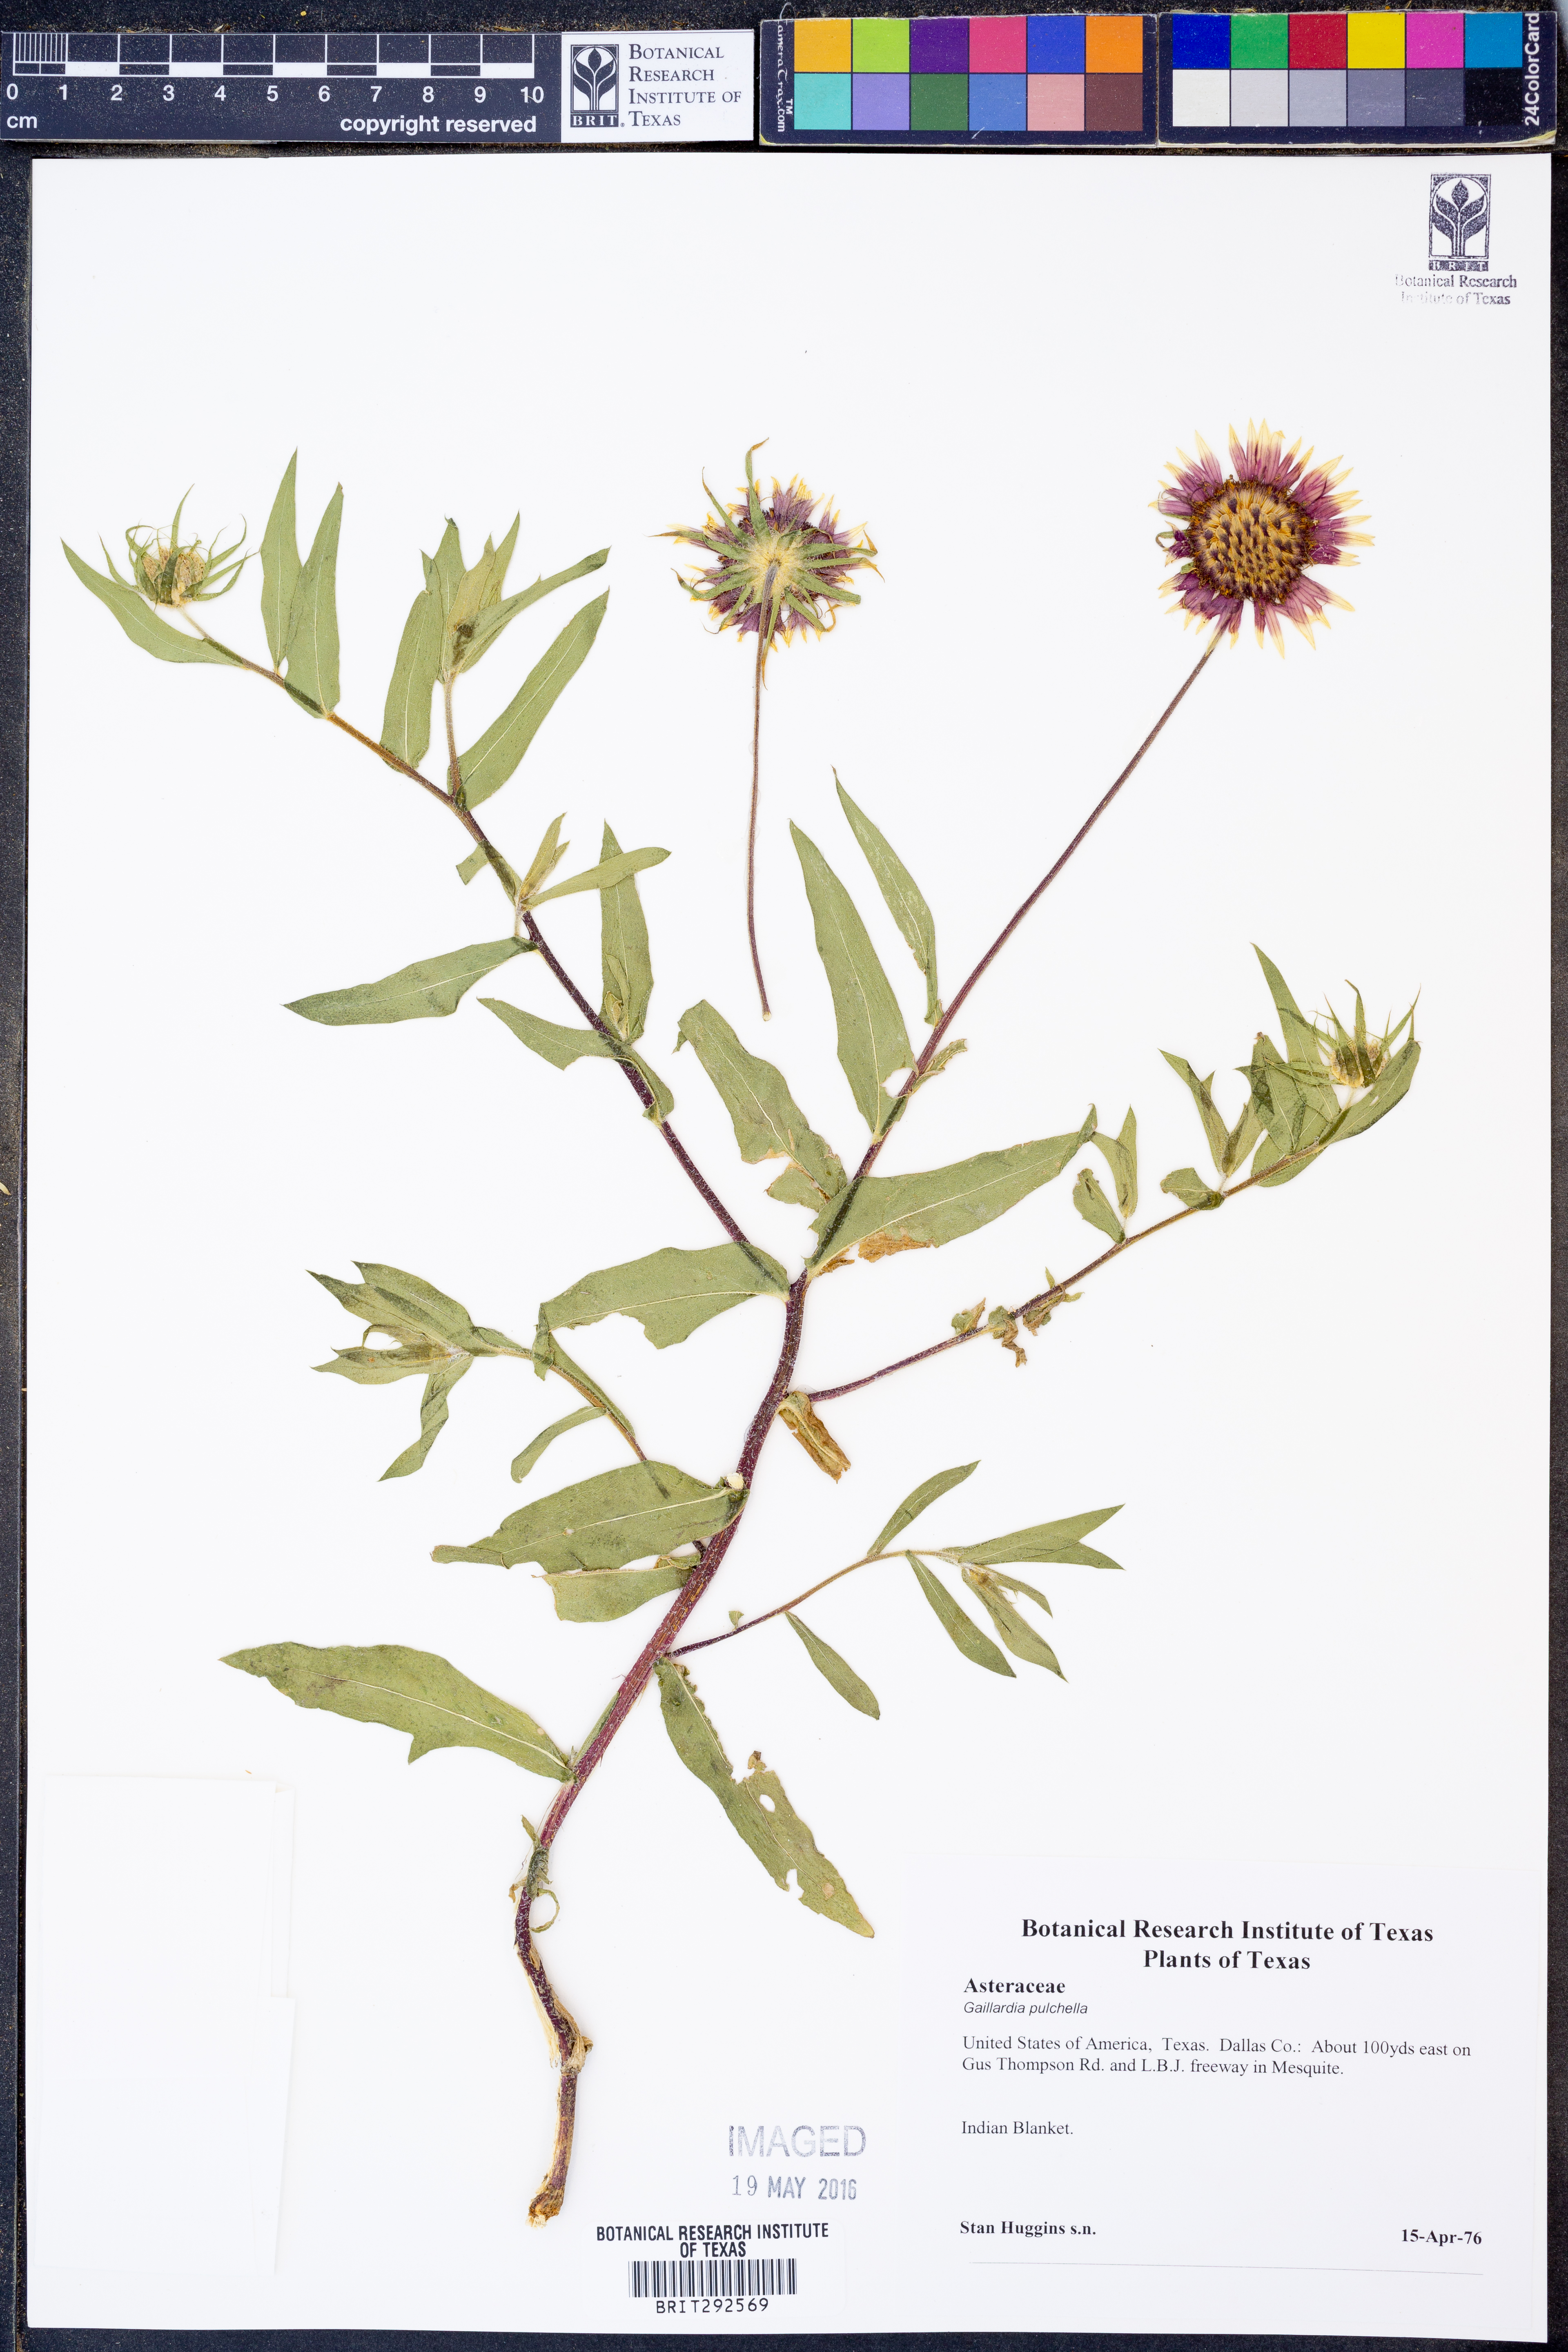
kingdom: Plantae
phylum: Tracheophyta
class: Magnoliopsida
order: Asterales
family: Asteraceae
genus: Gaillardia
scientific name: Gaillardia pulchella
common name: Firewheel
